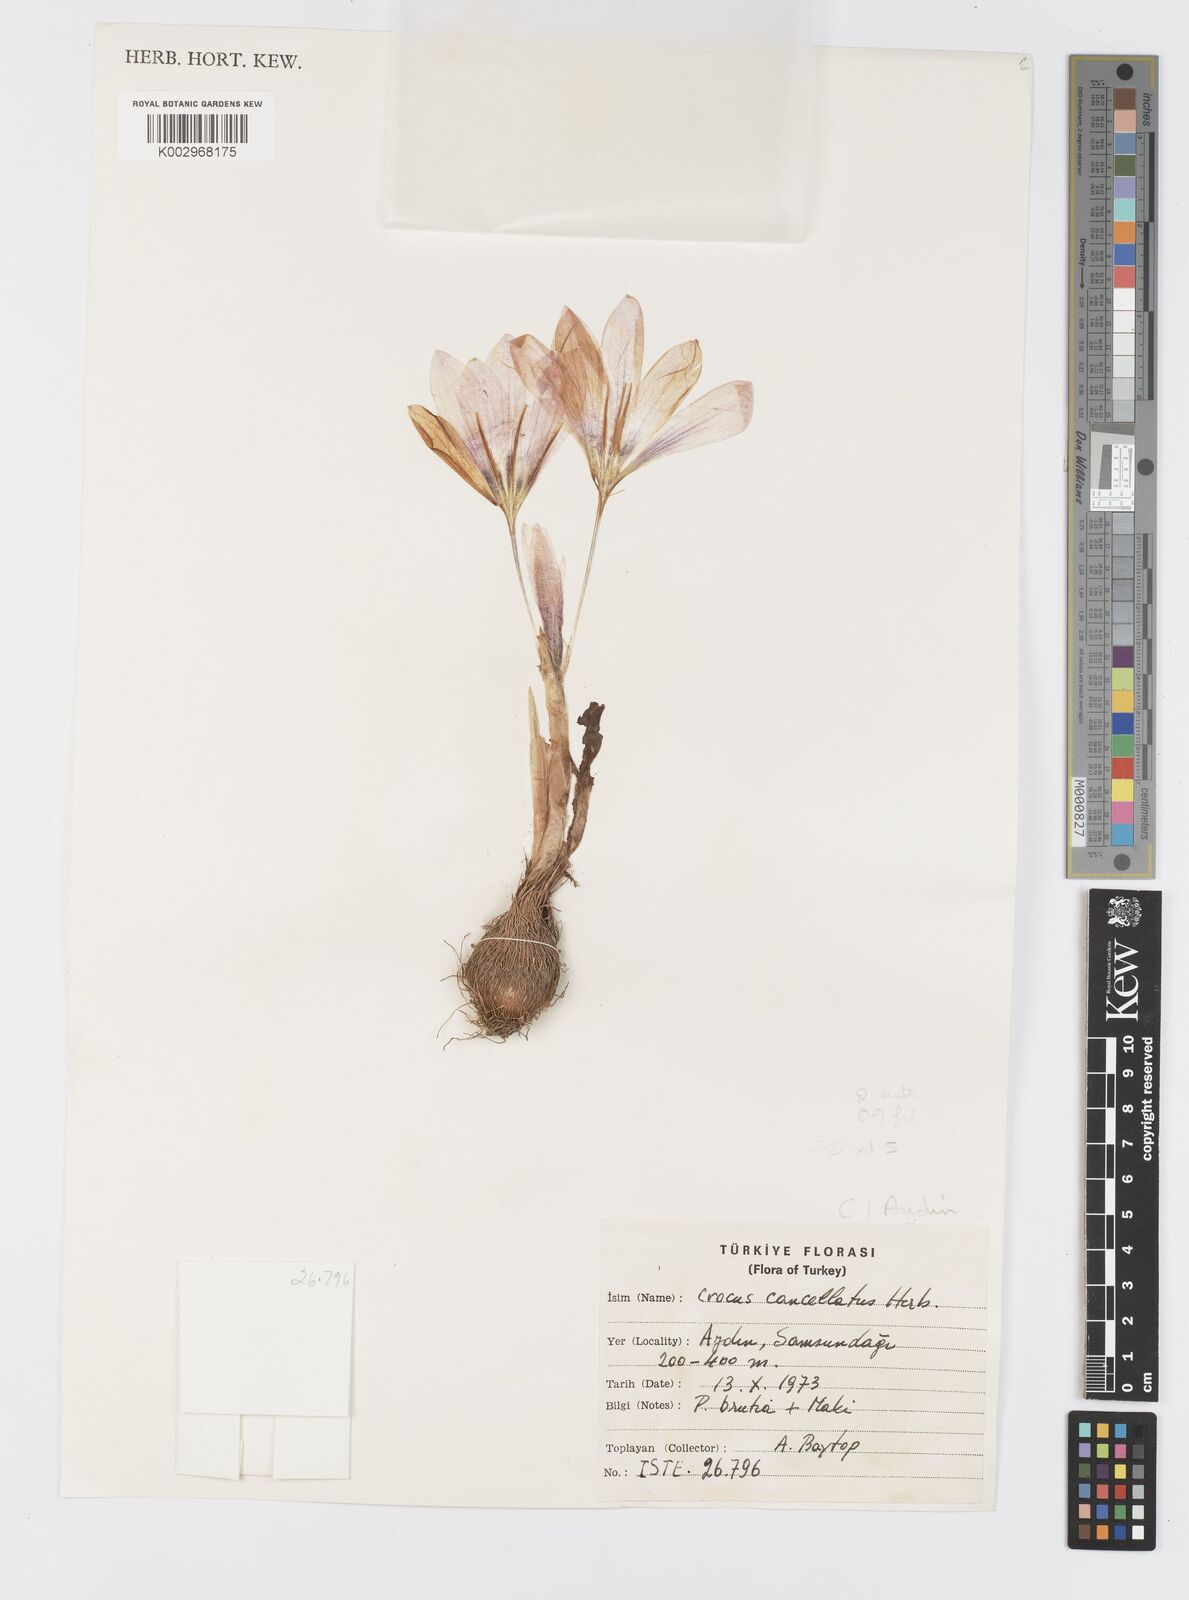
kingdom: Plantae
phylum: Tracheophyta
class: Liliopsida
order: Asparagales
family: Iridaceae
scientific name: Iridaceae
